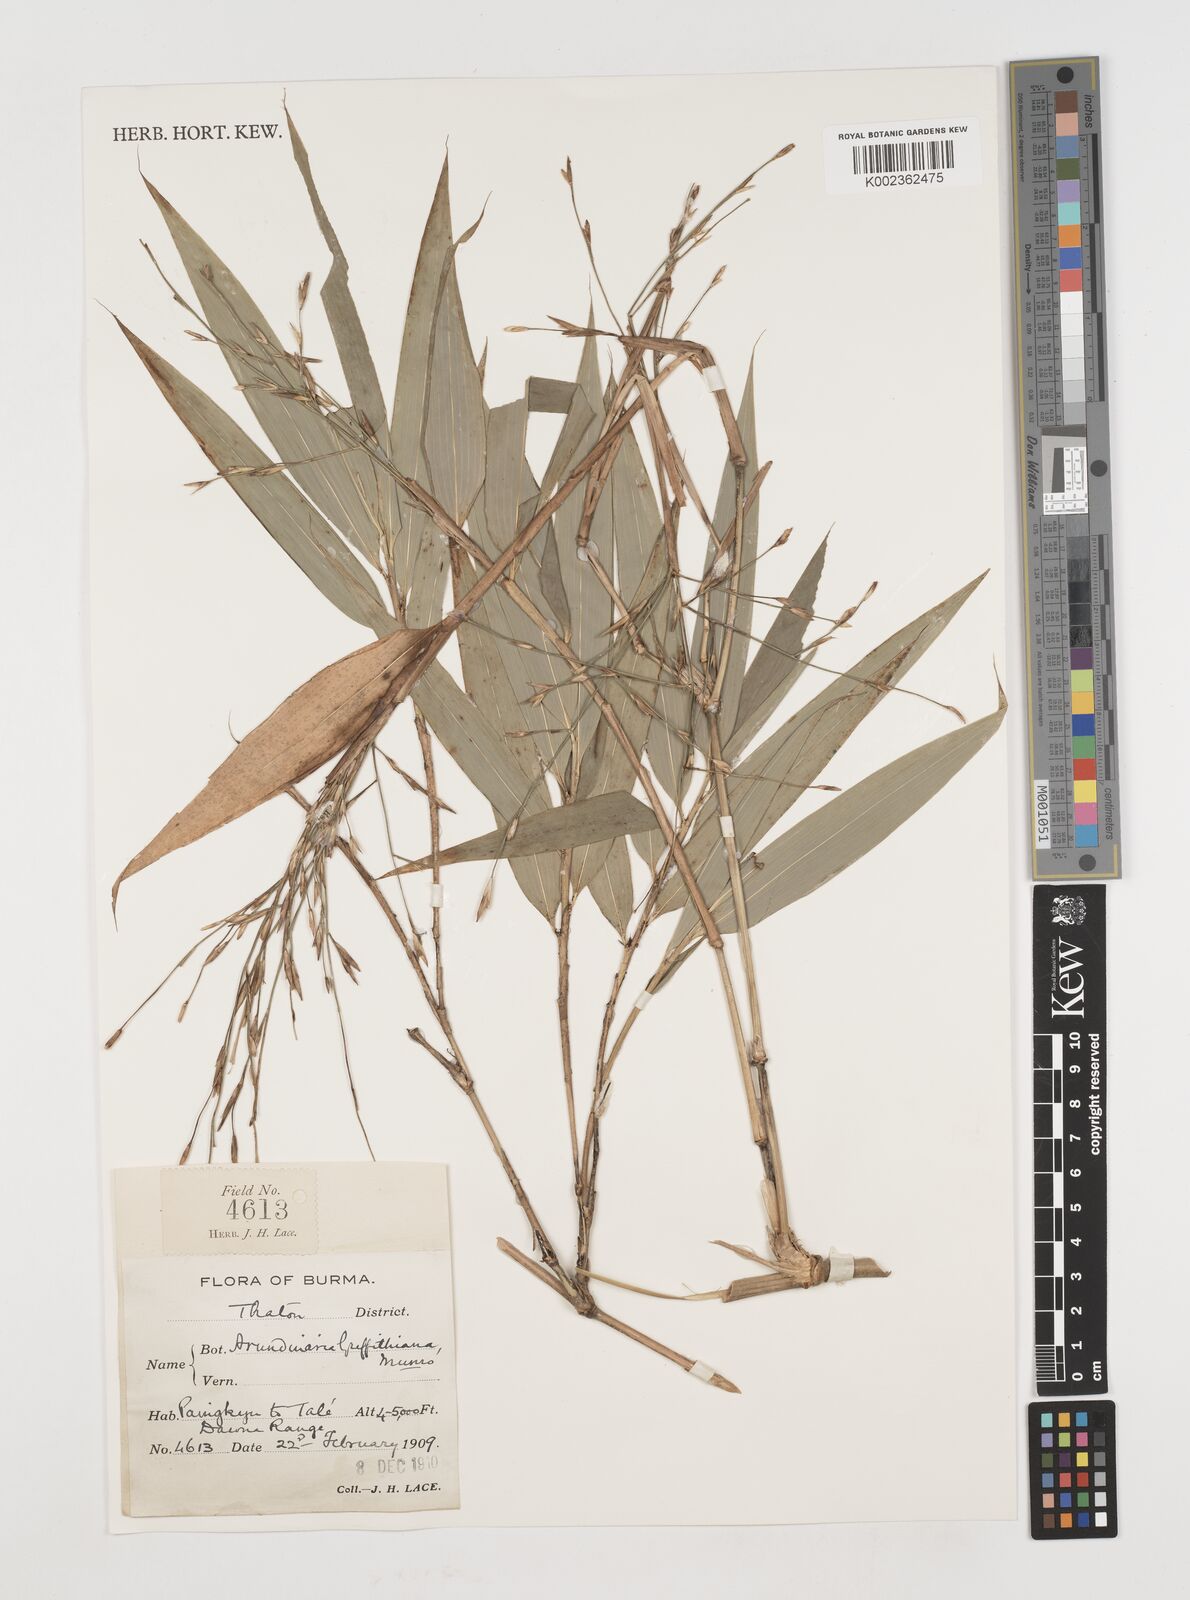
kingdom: Plantae
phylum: Tracheophyta
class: Liliopsida
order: Poales
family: Poaceae
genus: Chimonocalamus
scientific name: Chimonocalamus griffithianus
